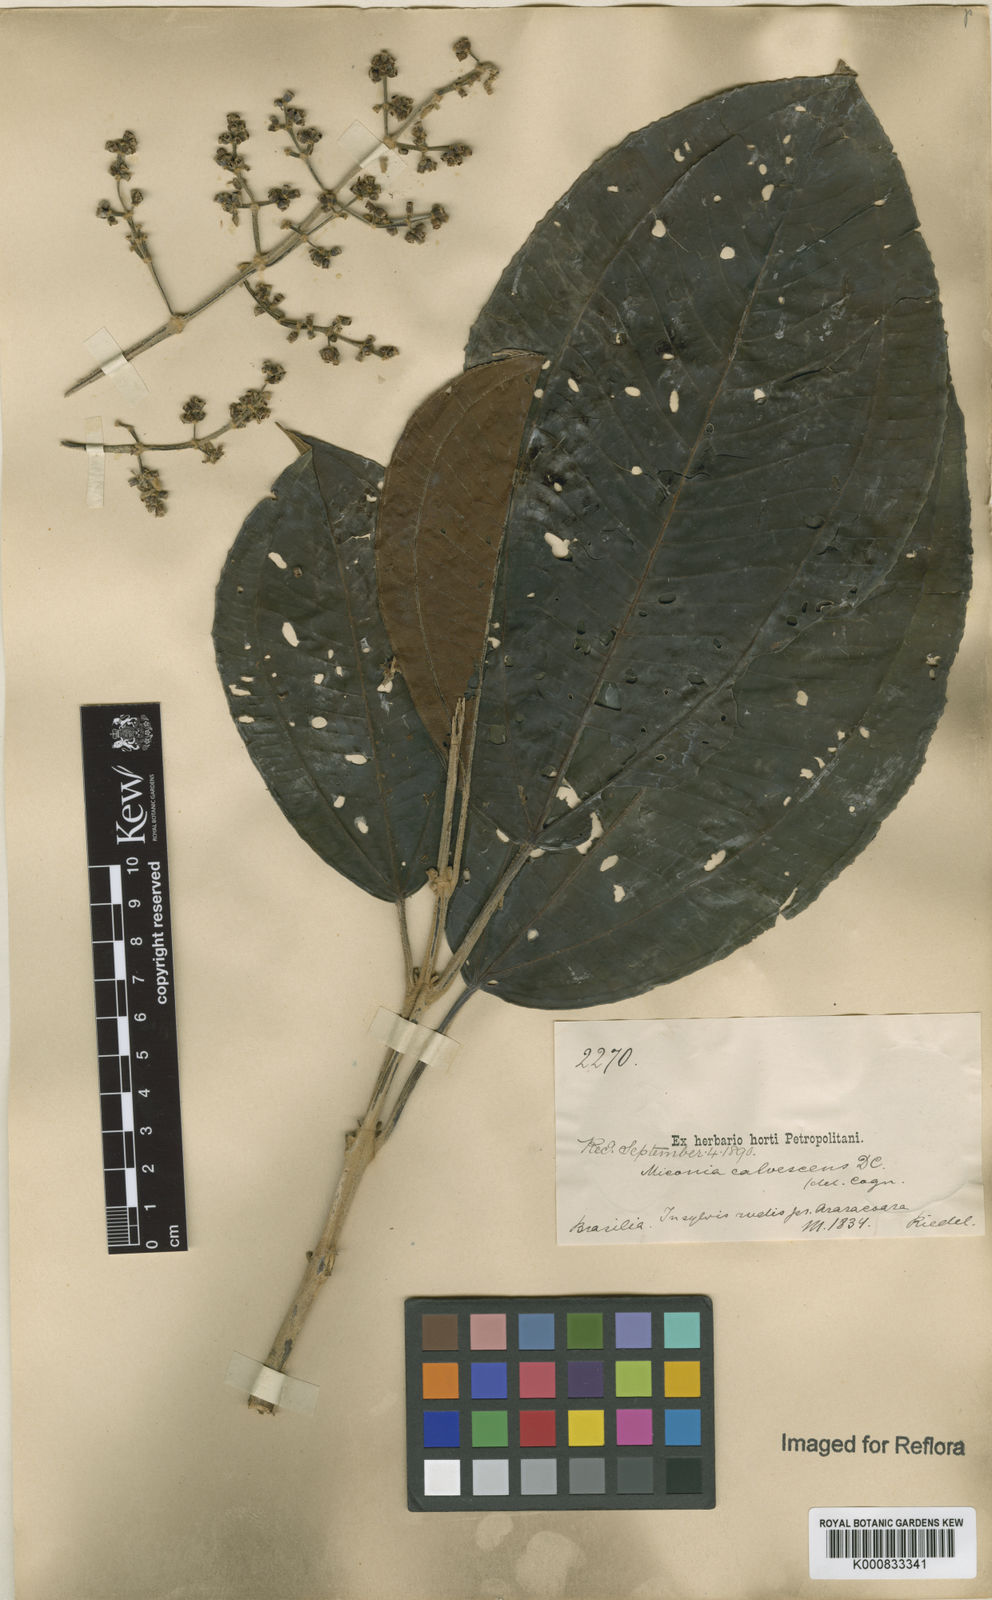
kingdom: Plantae
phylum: Tracheophyta
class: Magnoliopsida
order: Myrtales
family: Melastomataceae
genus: Miconia
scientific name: Miconia calvescens
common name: Purple plague
